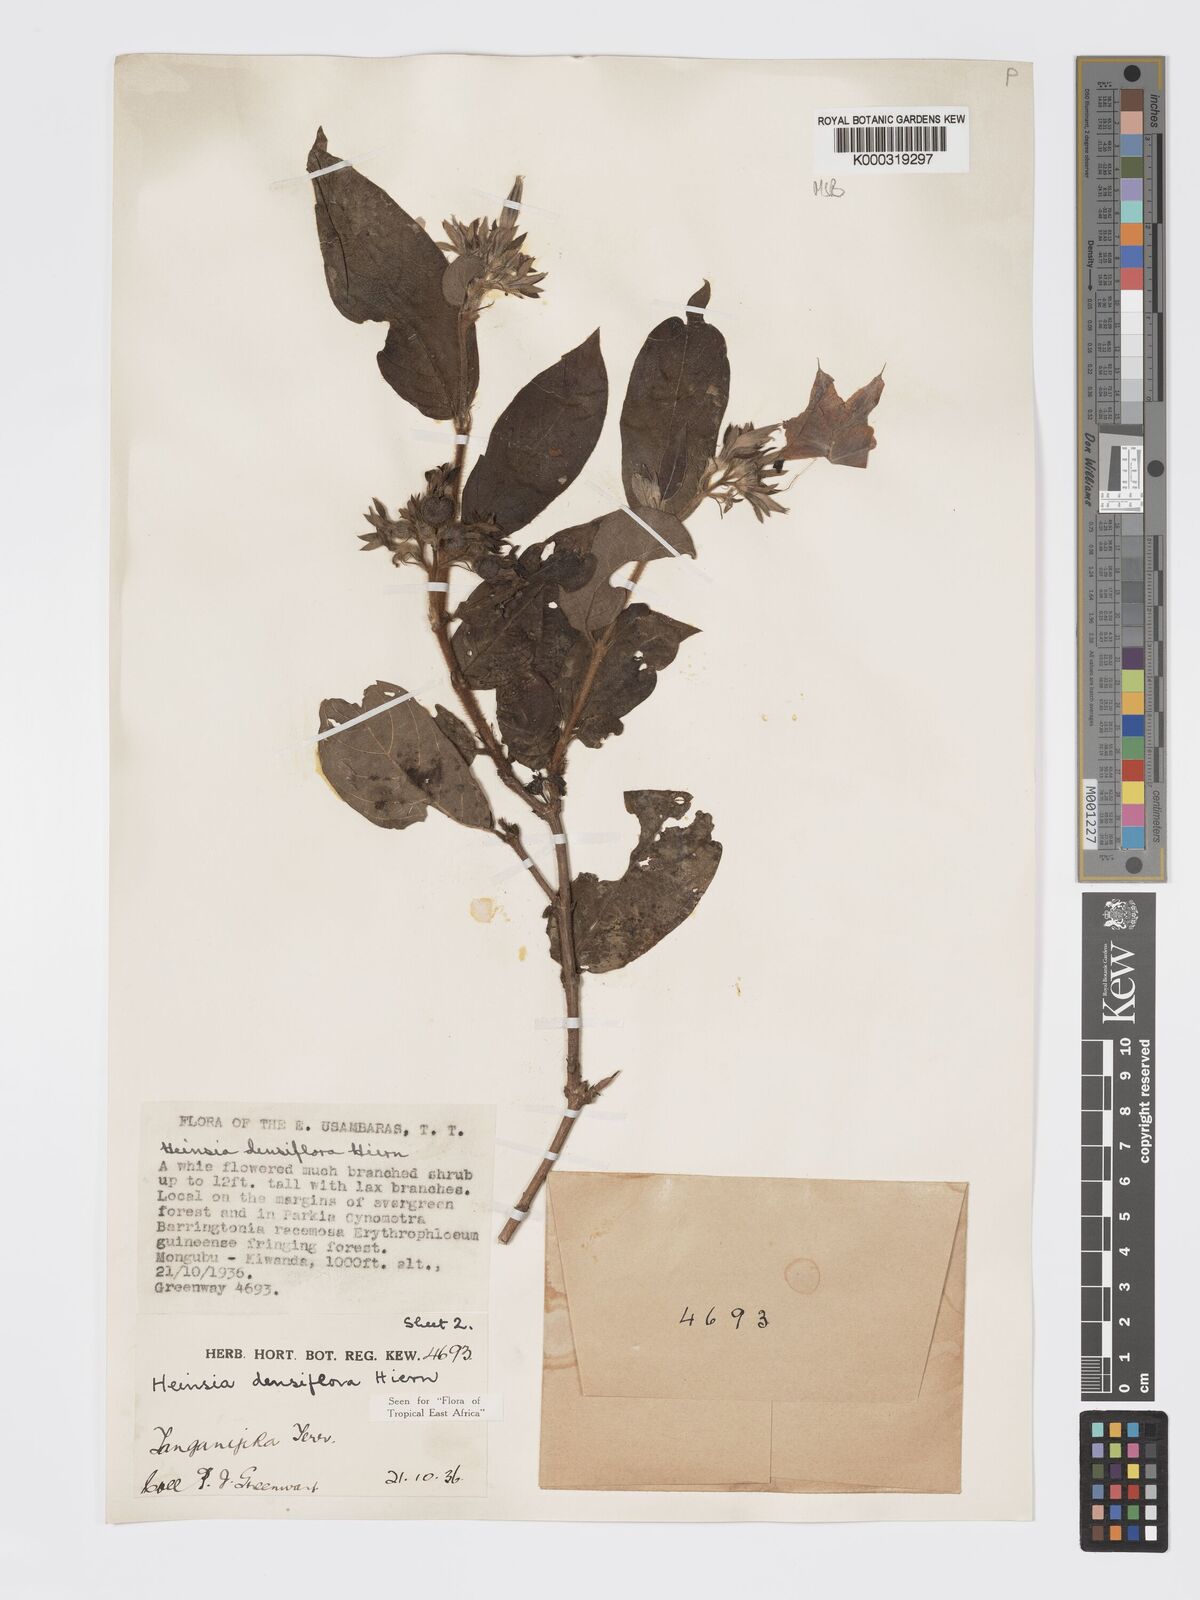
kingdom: Plantae
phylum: Tracheophyta
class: Magnoliopsida
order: Gentianales
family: Rubiaceae
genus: Heinsia
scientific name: Heinsia zanzibarica
